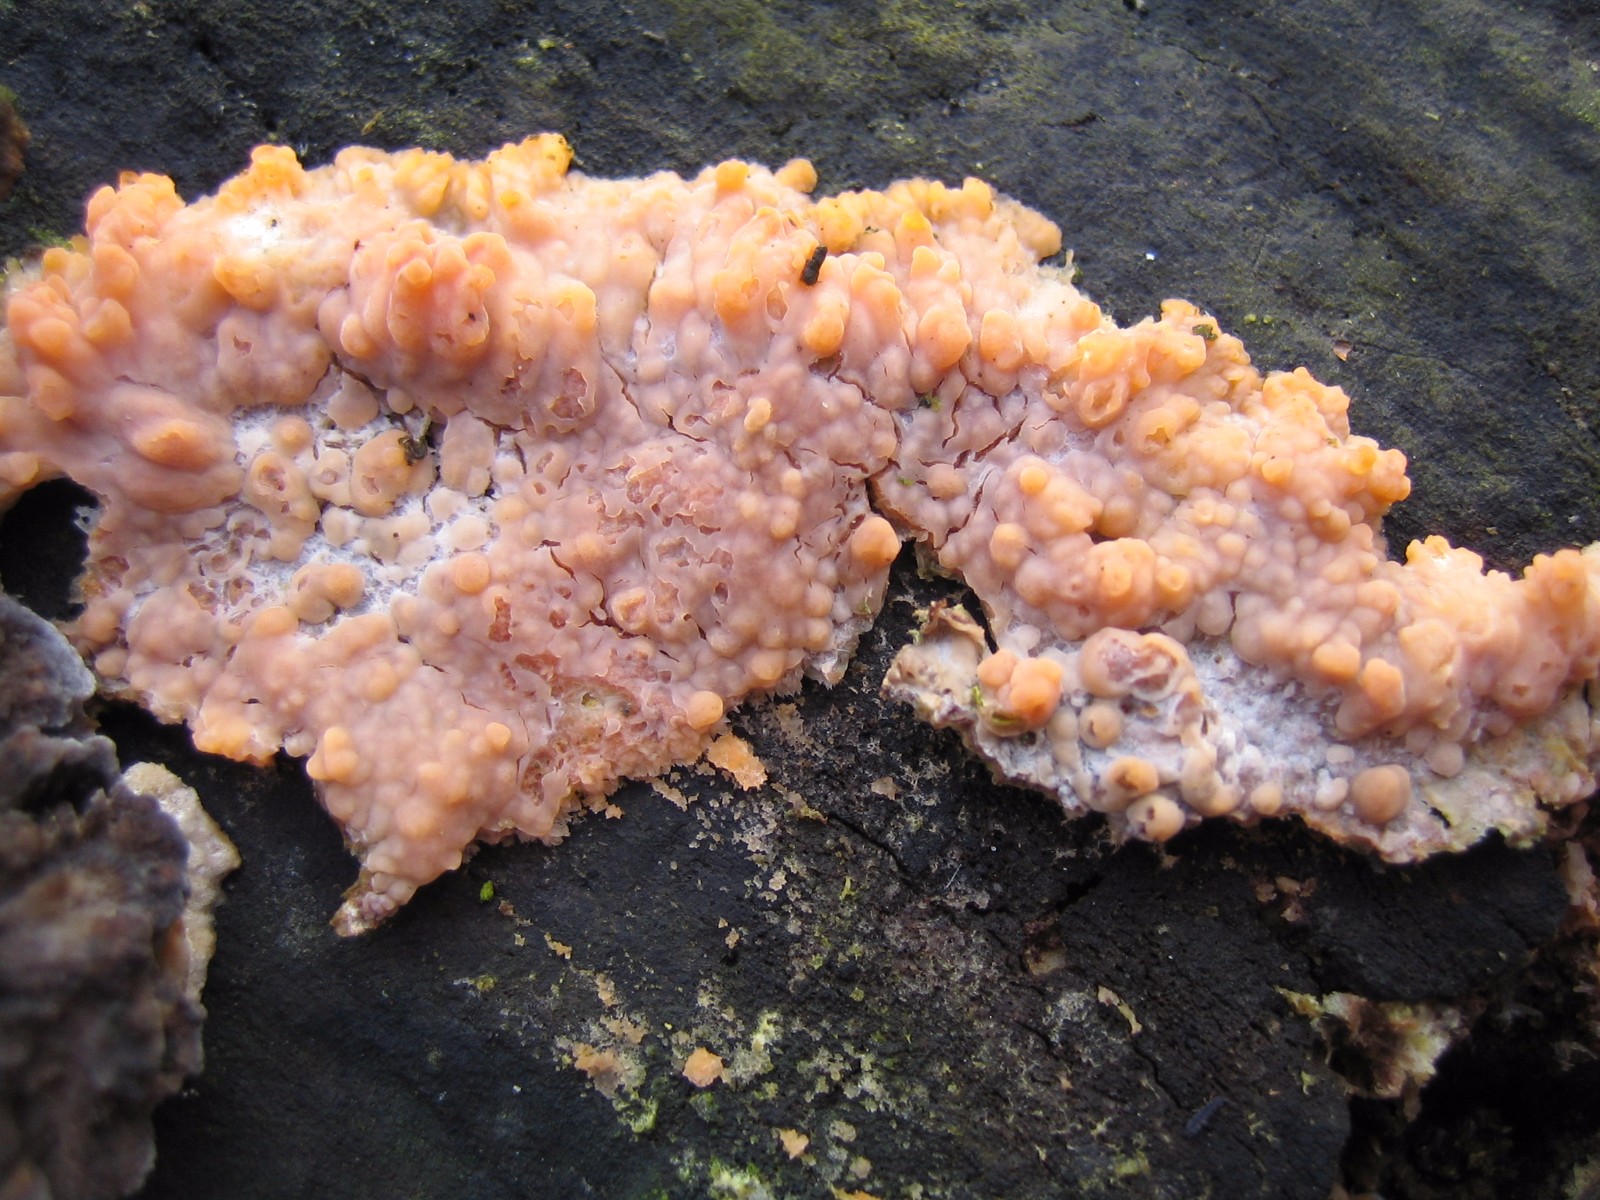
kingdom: Fungi
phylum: Basidiomycota
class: Agaricomycetes
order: Polyporales
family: Meruliaceae
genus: Phlebia
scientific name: Phlebia radiata
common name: stråle-åresvamp
